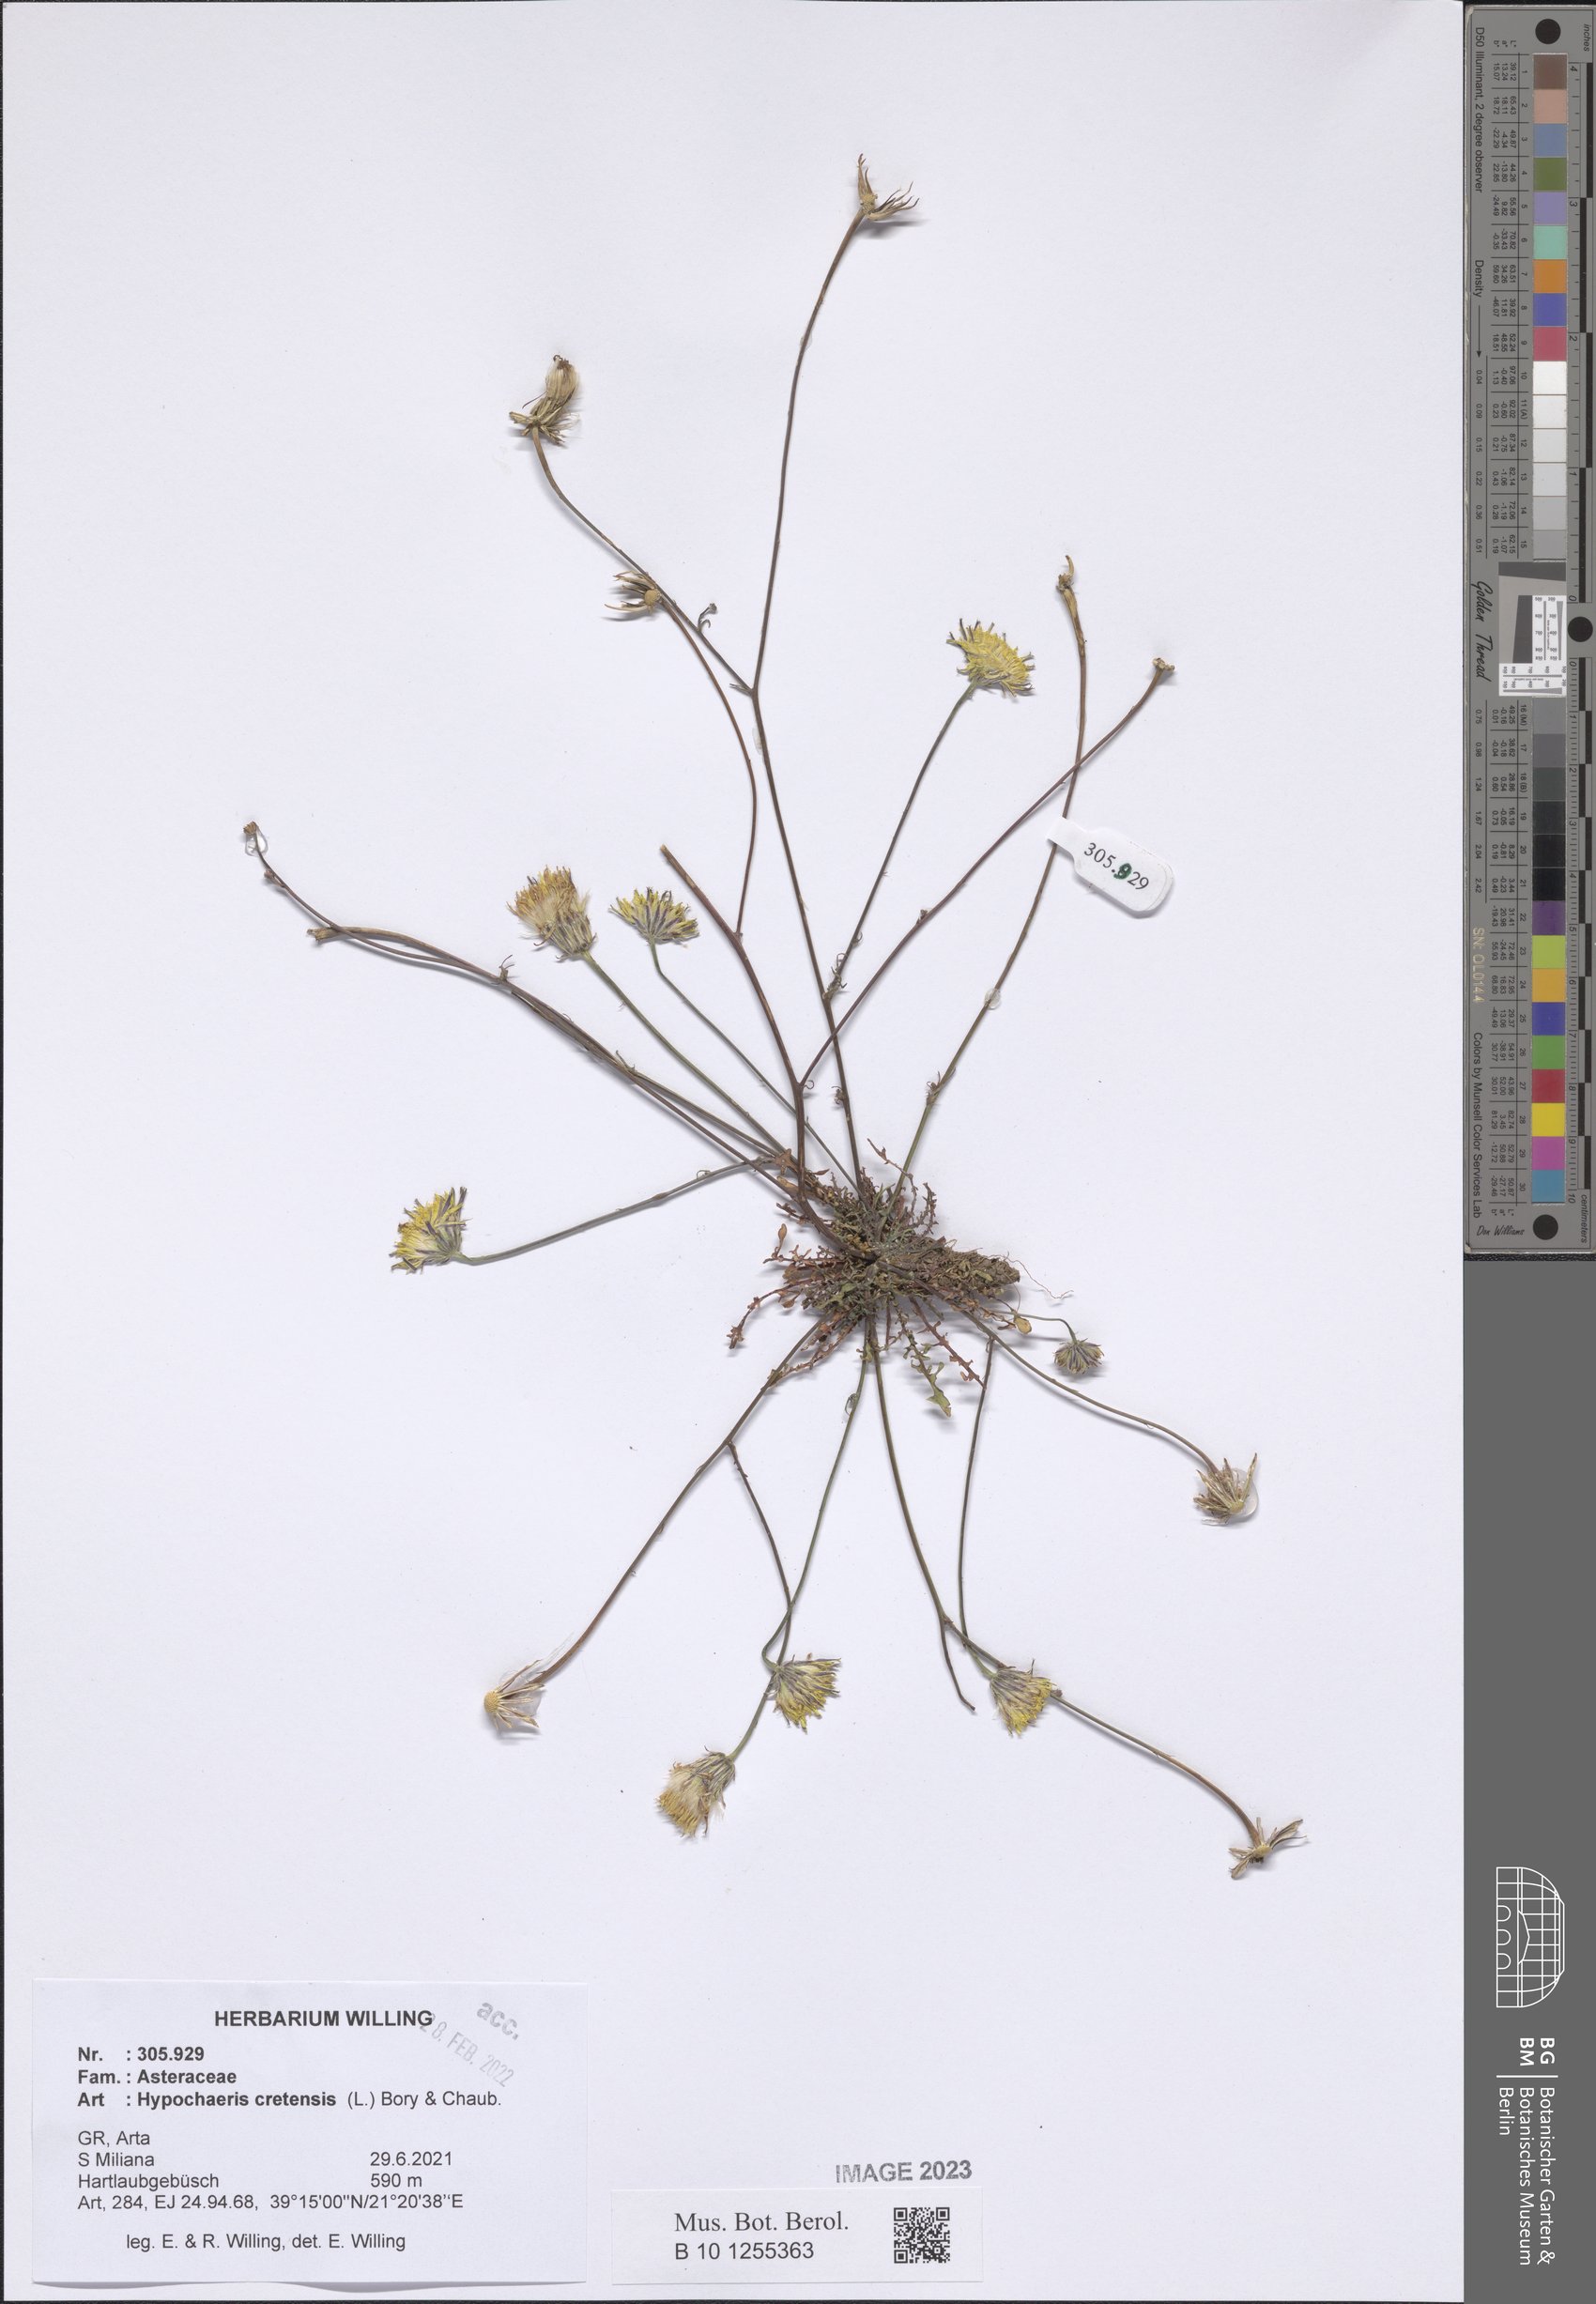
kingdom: Plantae
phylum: Tracheophyta
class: Magnoliopsida
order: Asterales
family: Asteraceae
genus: Hypochaeris
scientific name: Hypochaeris cretensis
